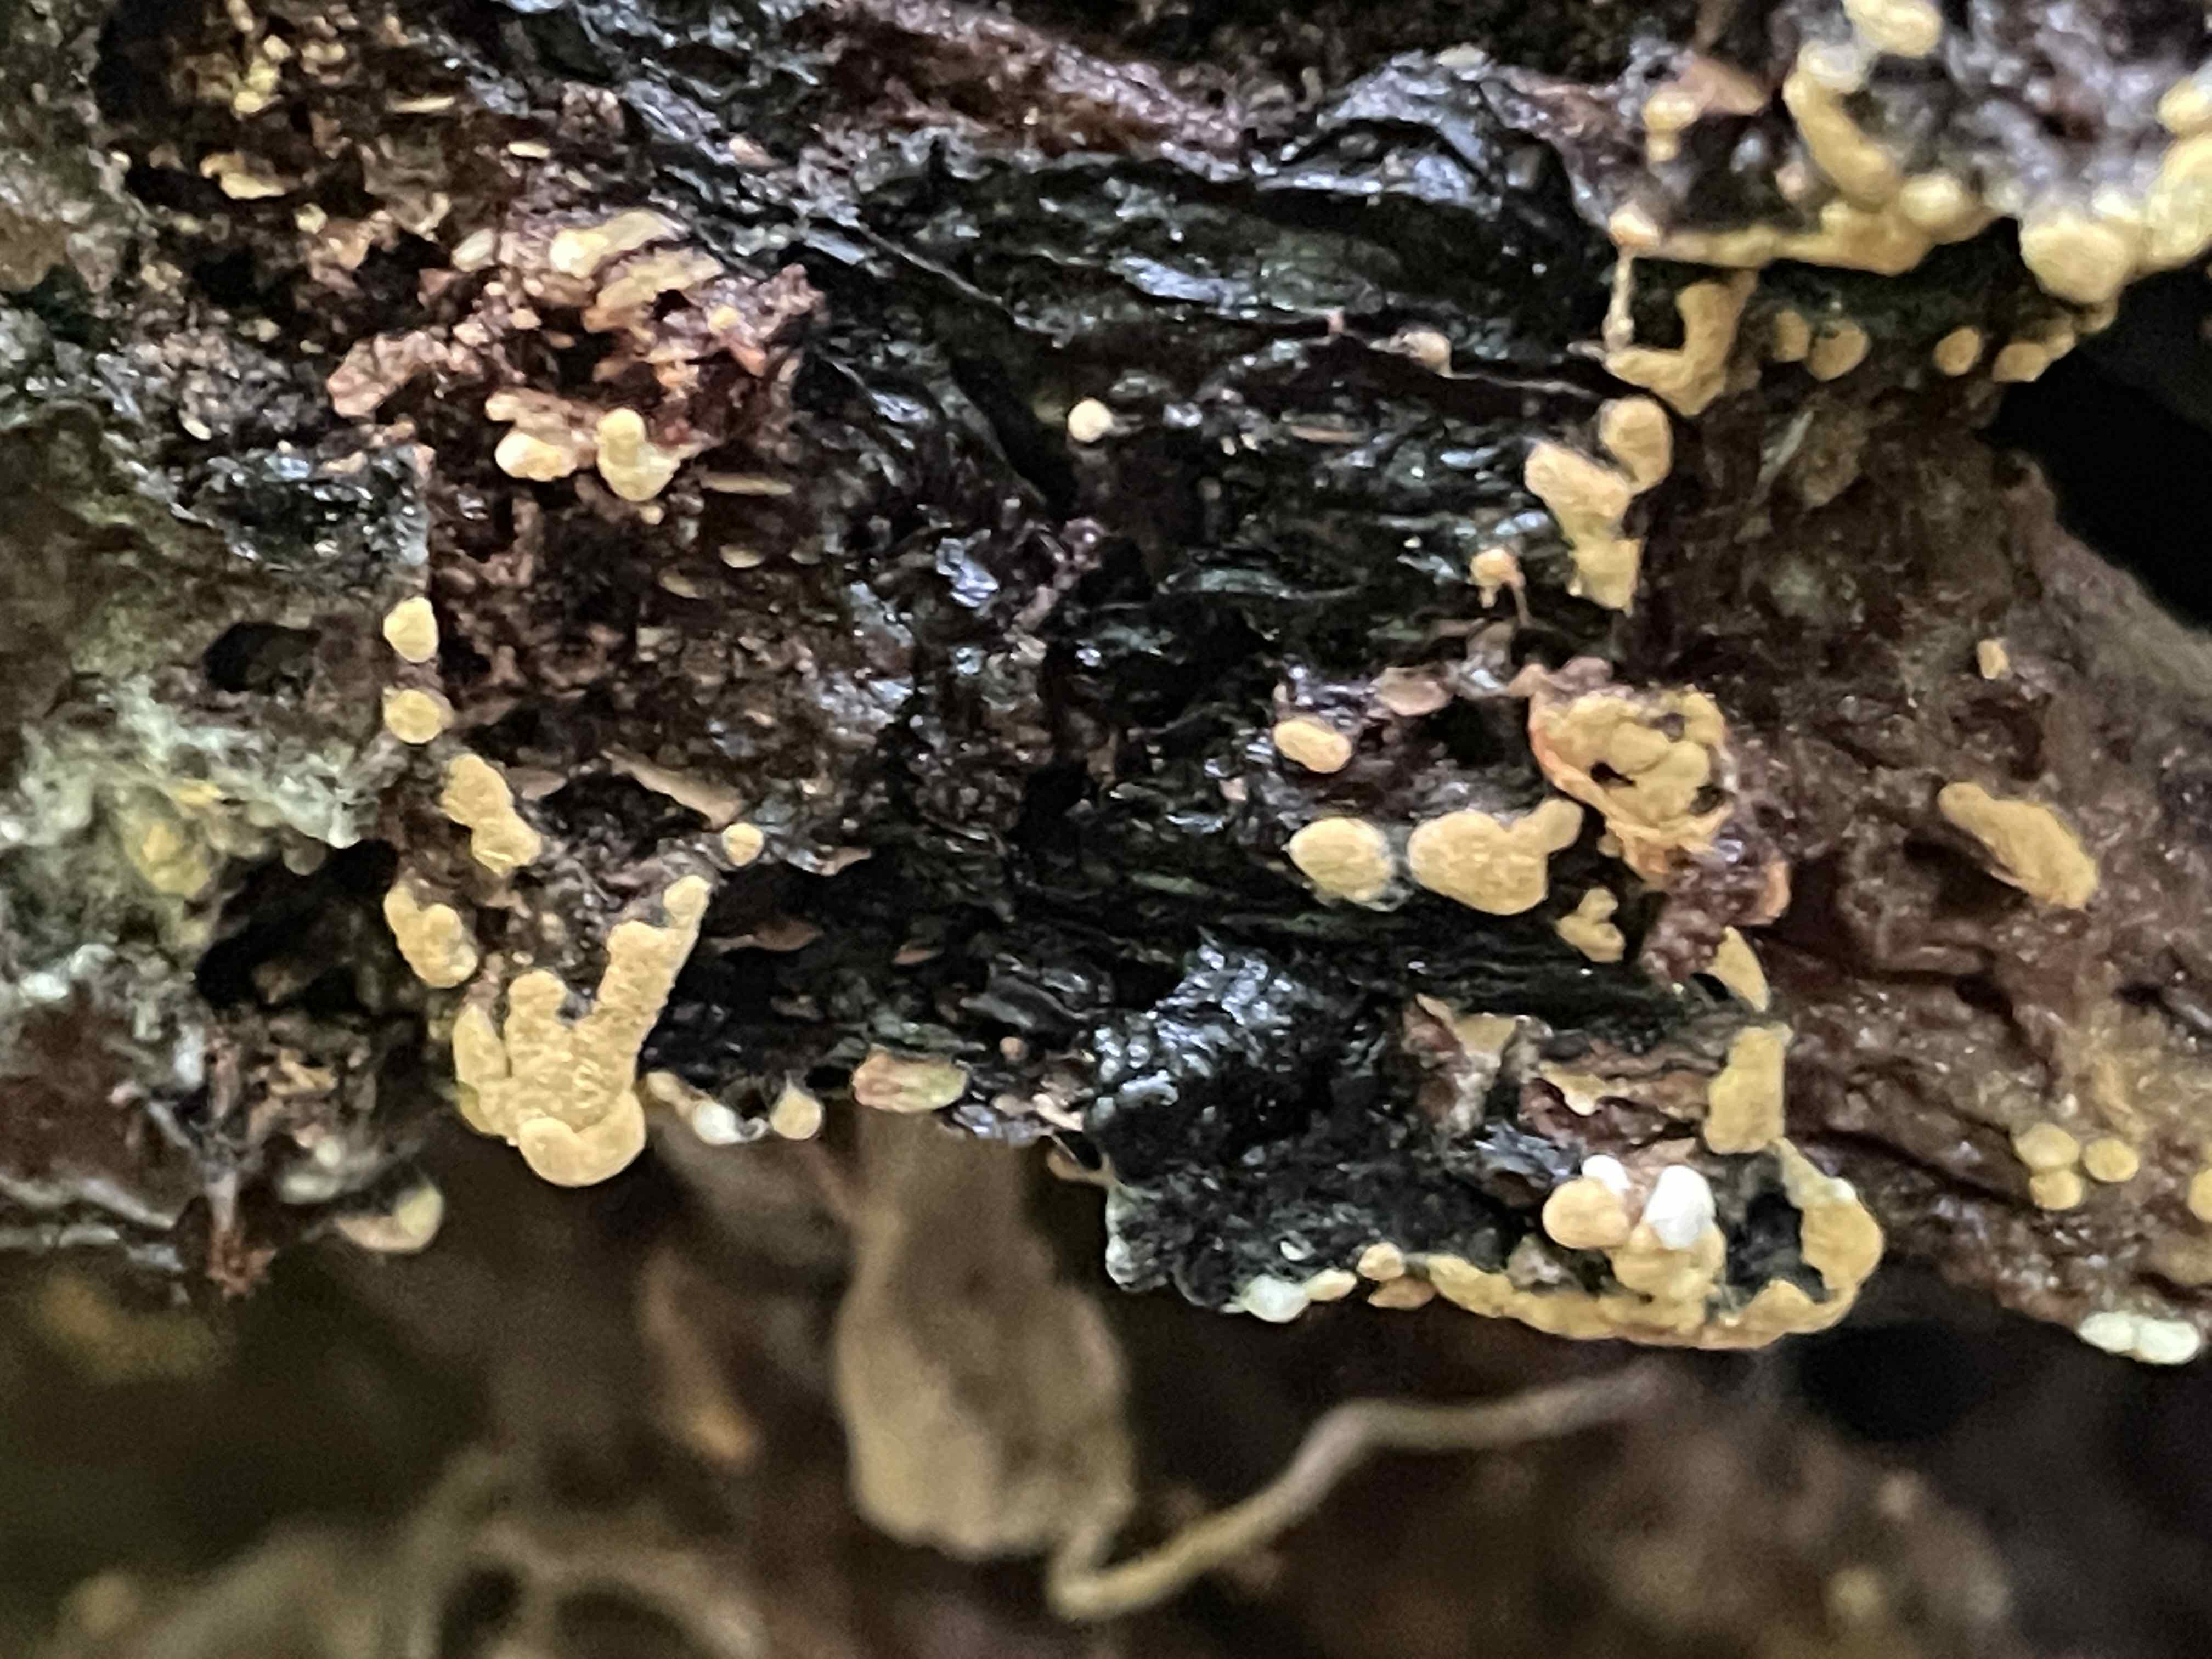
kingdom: Fungi
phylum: Basidiomycota
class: Agaricomycetes
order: Cantharellales
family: Botryobasidiaceae
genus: Botryobasidium
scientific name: Botryobasidium aureum
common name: gylden spindhinde
